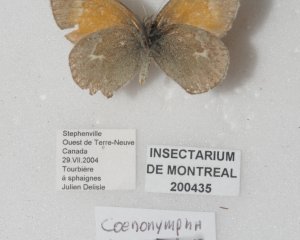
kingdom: Animalia
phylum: Arthropoda
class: Insecta
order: Lepidoptera
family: Nymphalidae
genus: Coenonympha
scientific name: Coenonympha tullia
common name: Large Heath
